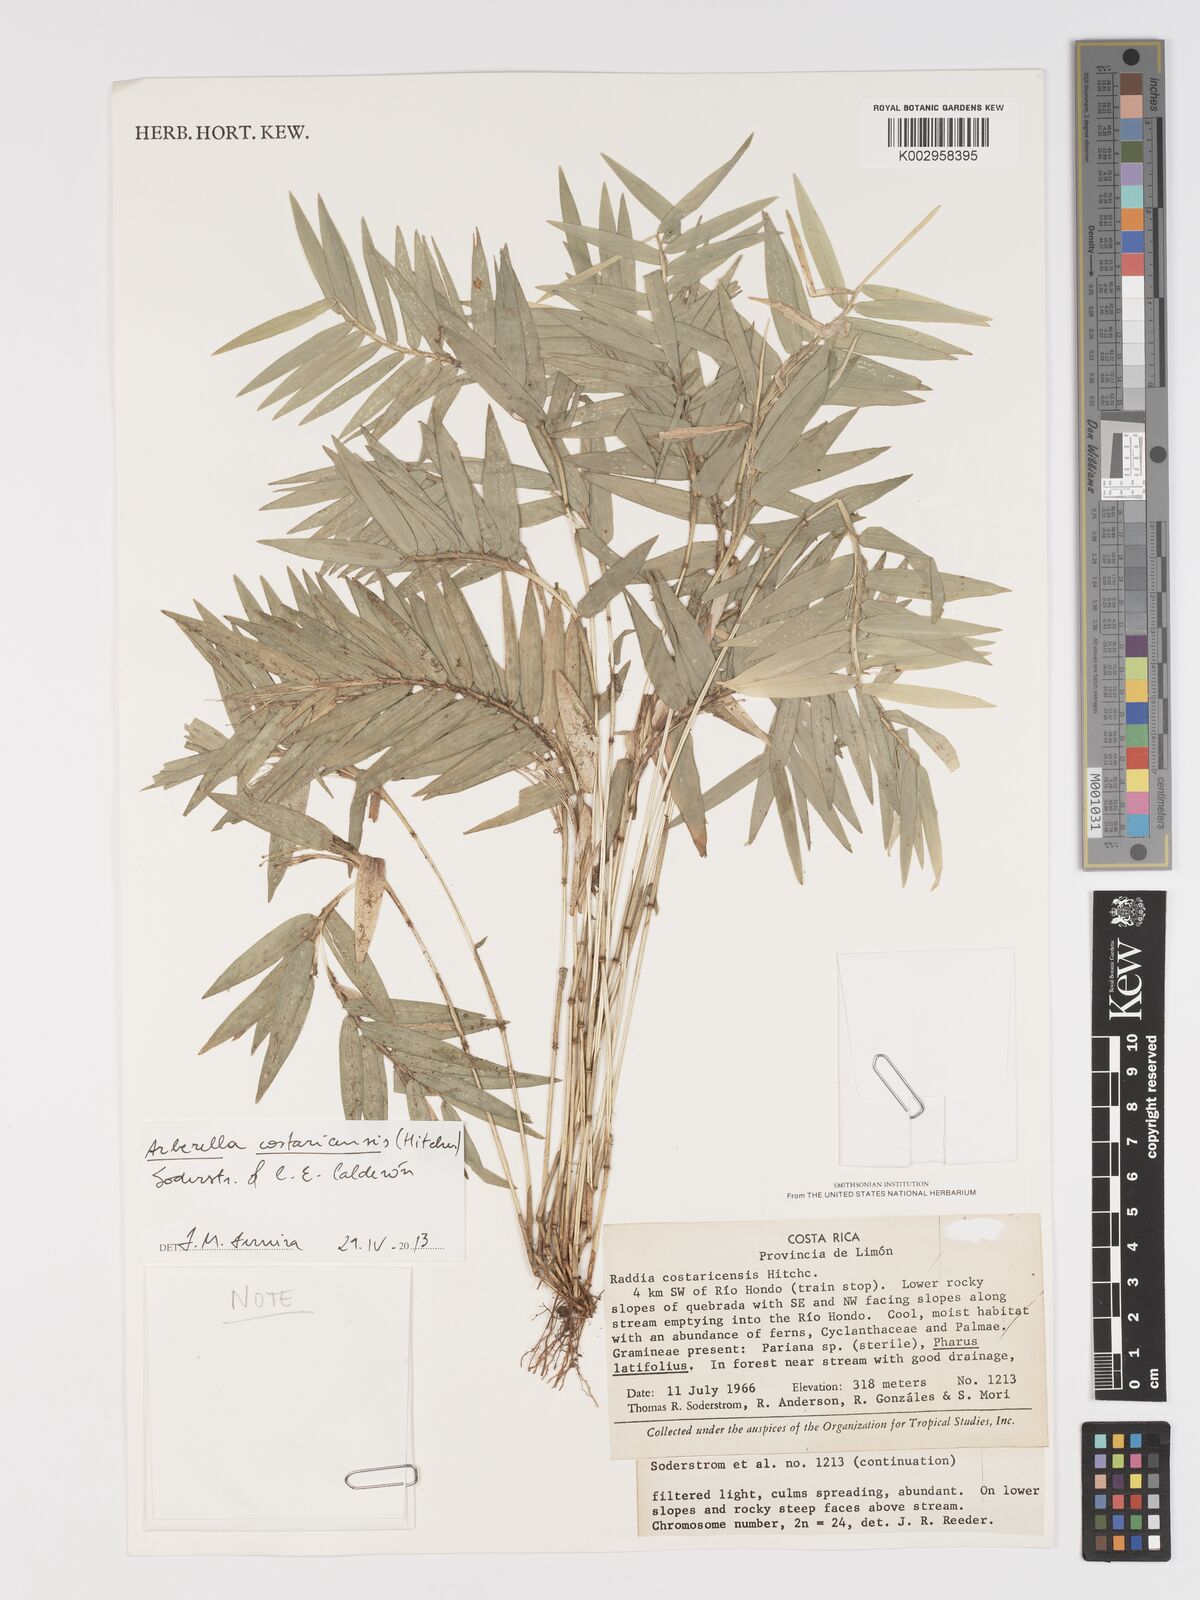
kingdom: Plantae
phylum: Tracheophyta
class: Liliopsida
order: Poales
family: Poaceae
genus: Arberella
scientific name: Arberella costaricensis
